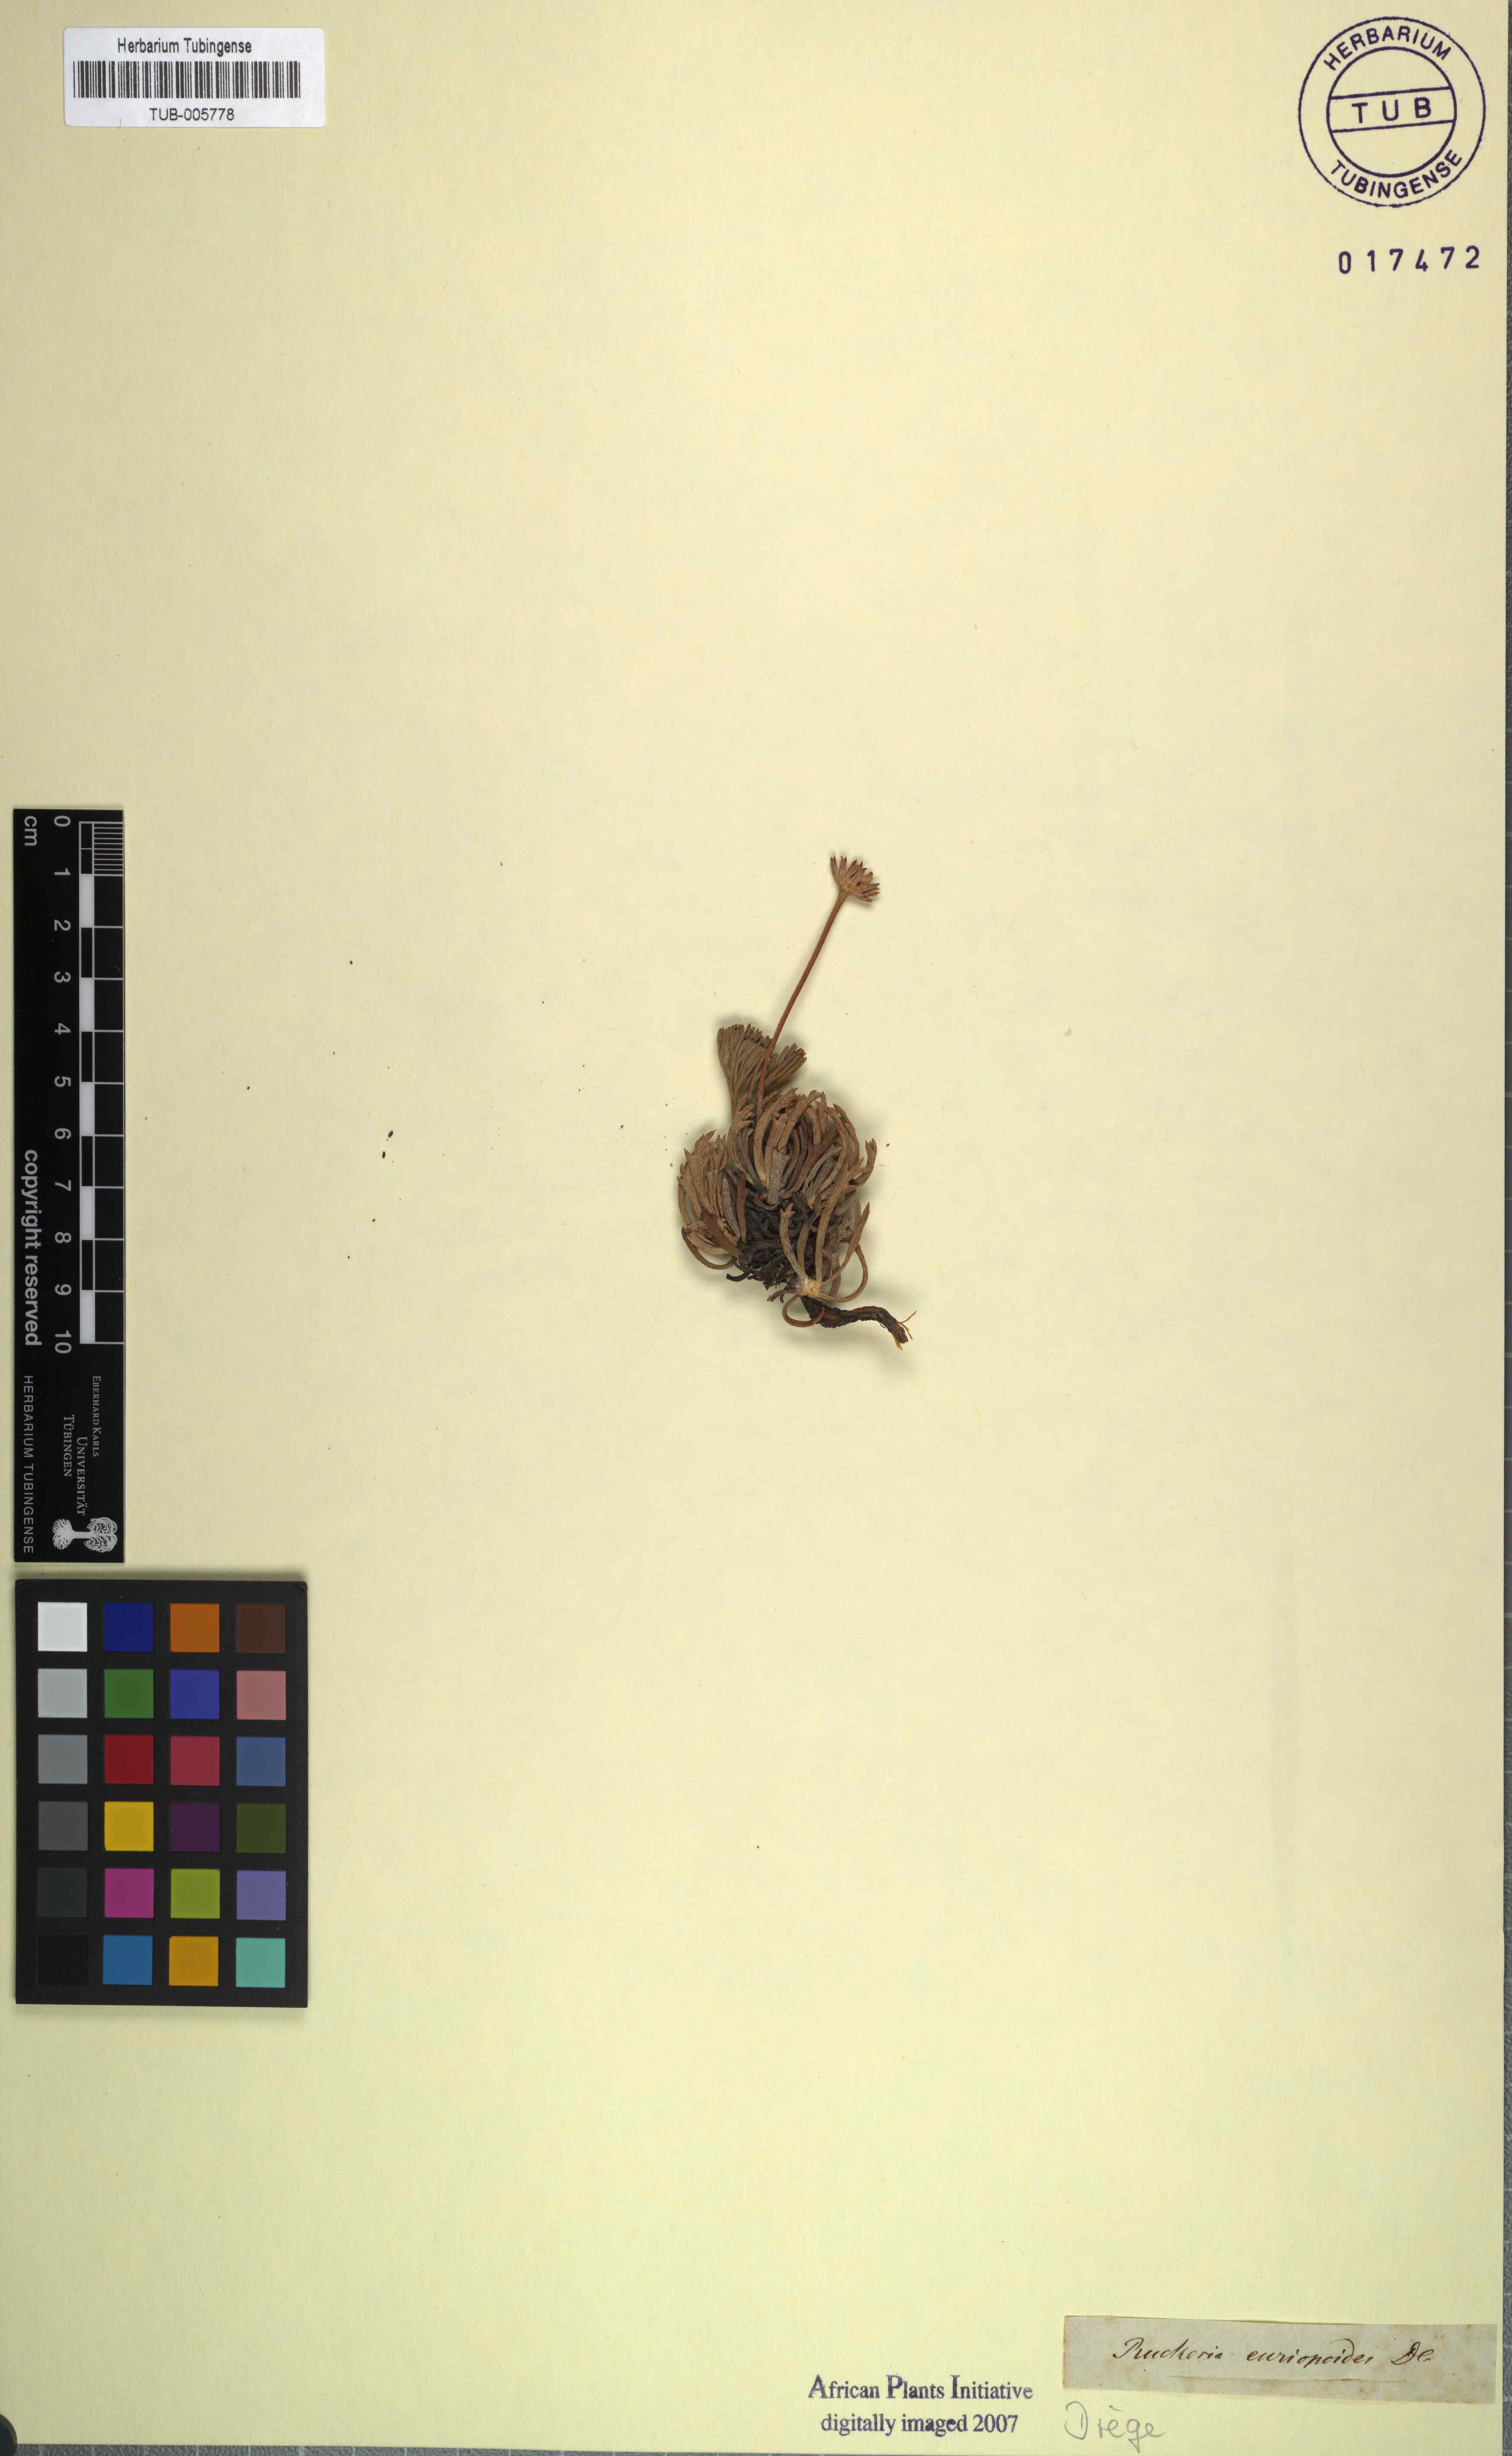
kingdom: Plantae
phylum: Tracheophyta
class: Magnoliopsida
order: Asterales
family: Asteraceae
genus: Euryops
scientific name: Euryops othonnoides
